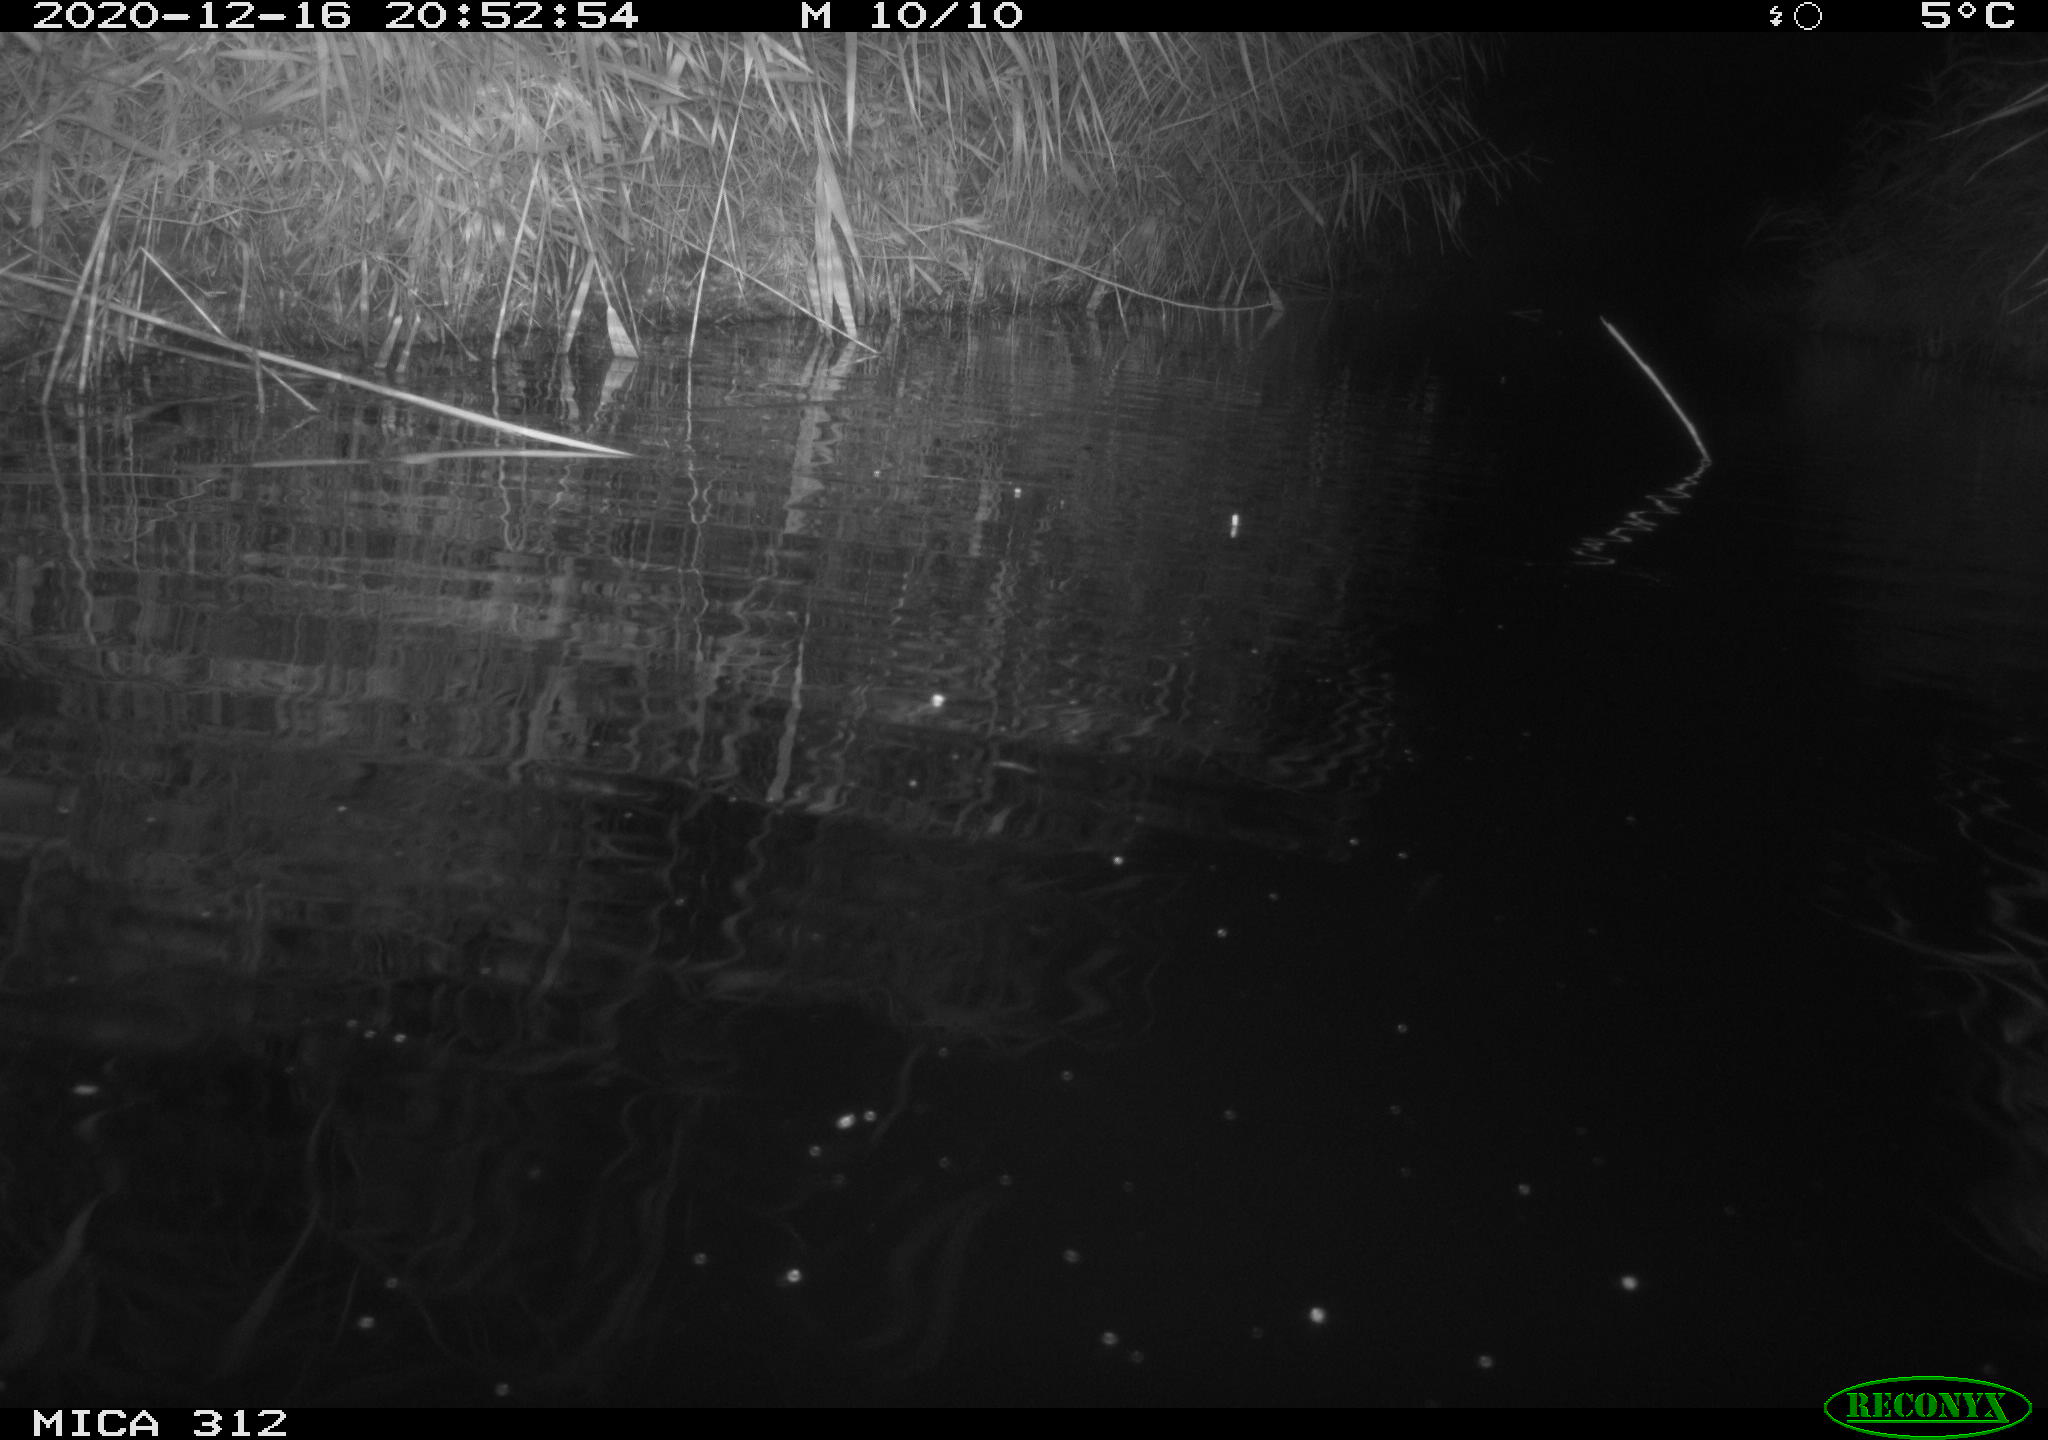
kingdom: Animalia
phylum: Chordata
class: Mammalia
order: Rodentia
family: Muridae
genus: Rattus
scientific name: Rattus norvegicus
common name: Brown rat
